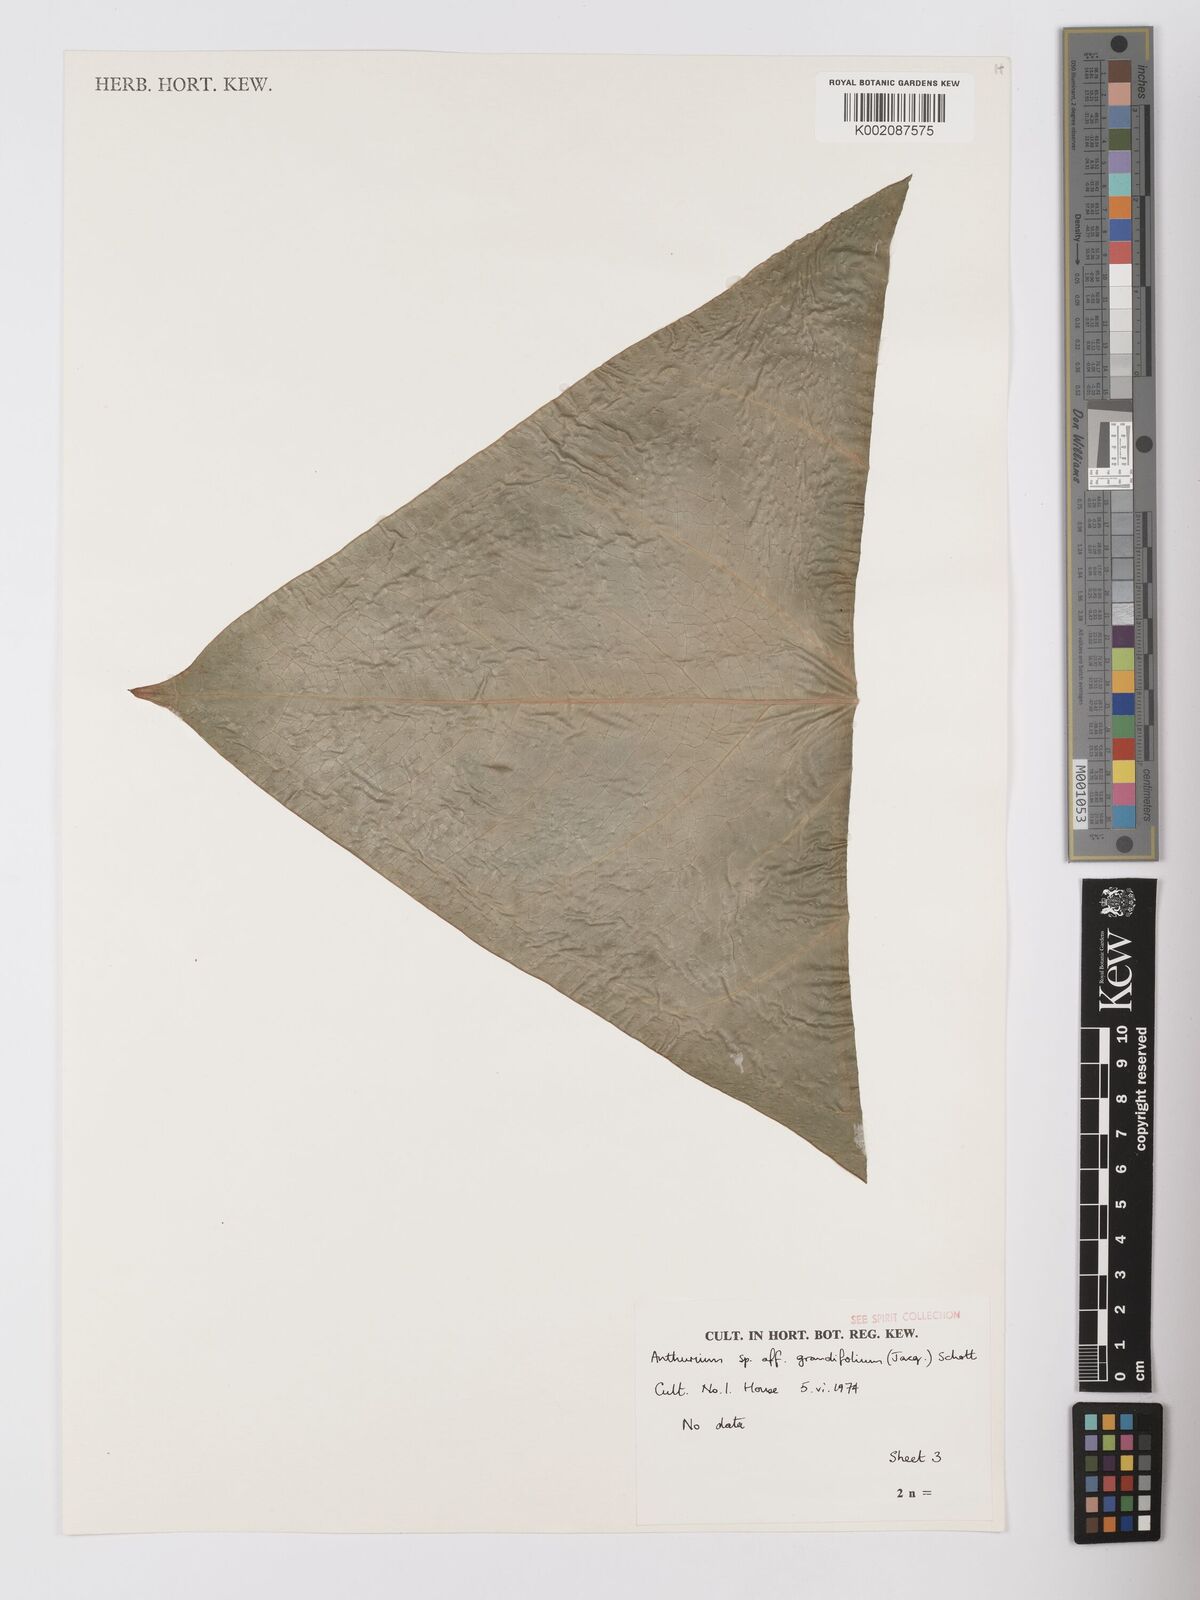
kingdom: Plantae
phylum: Tracheophyta
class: Liliopsida
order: Alismatales
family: Araceae
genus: Anthurium
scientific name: Anthurium grandifolium
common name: Monkey tail
